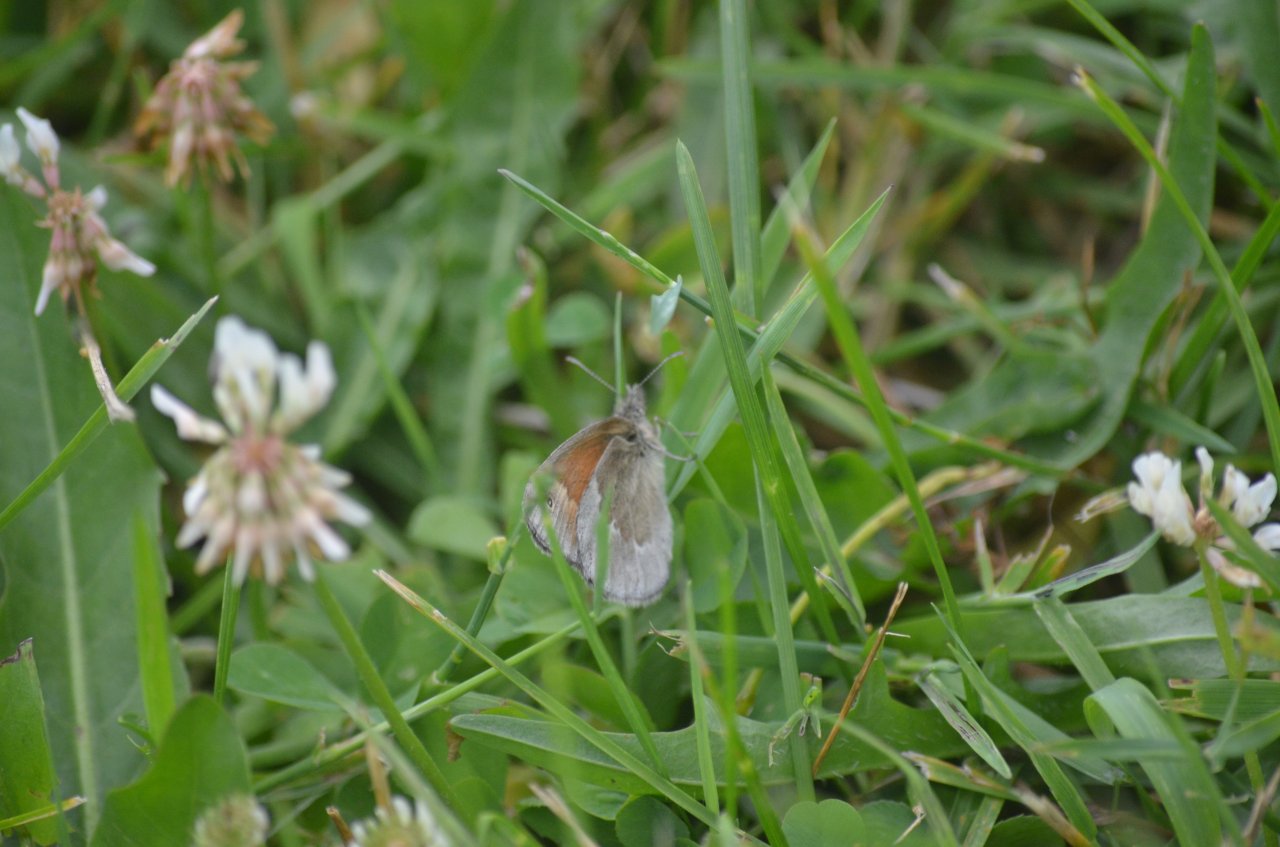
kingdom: Animalia
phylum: Arthropoda
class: Insecta
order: Lepidoptera
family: Nymphalidae
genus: Coenonympha
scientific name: Coenonympha tullia
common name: Large Heath
